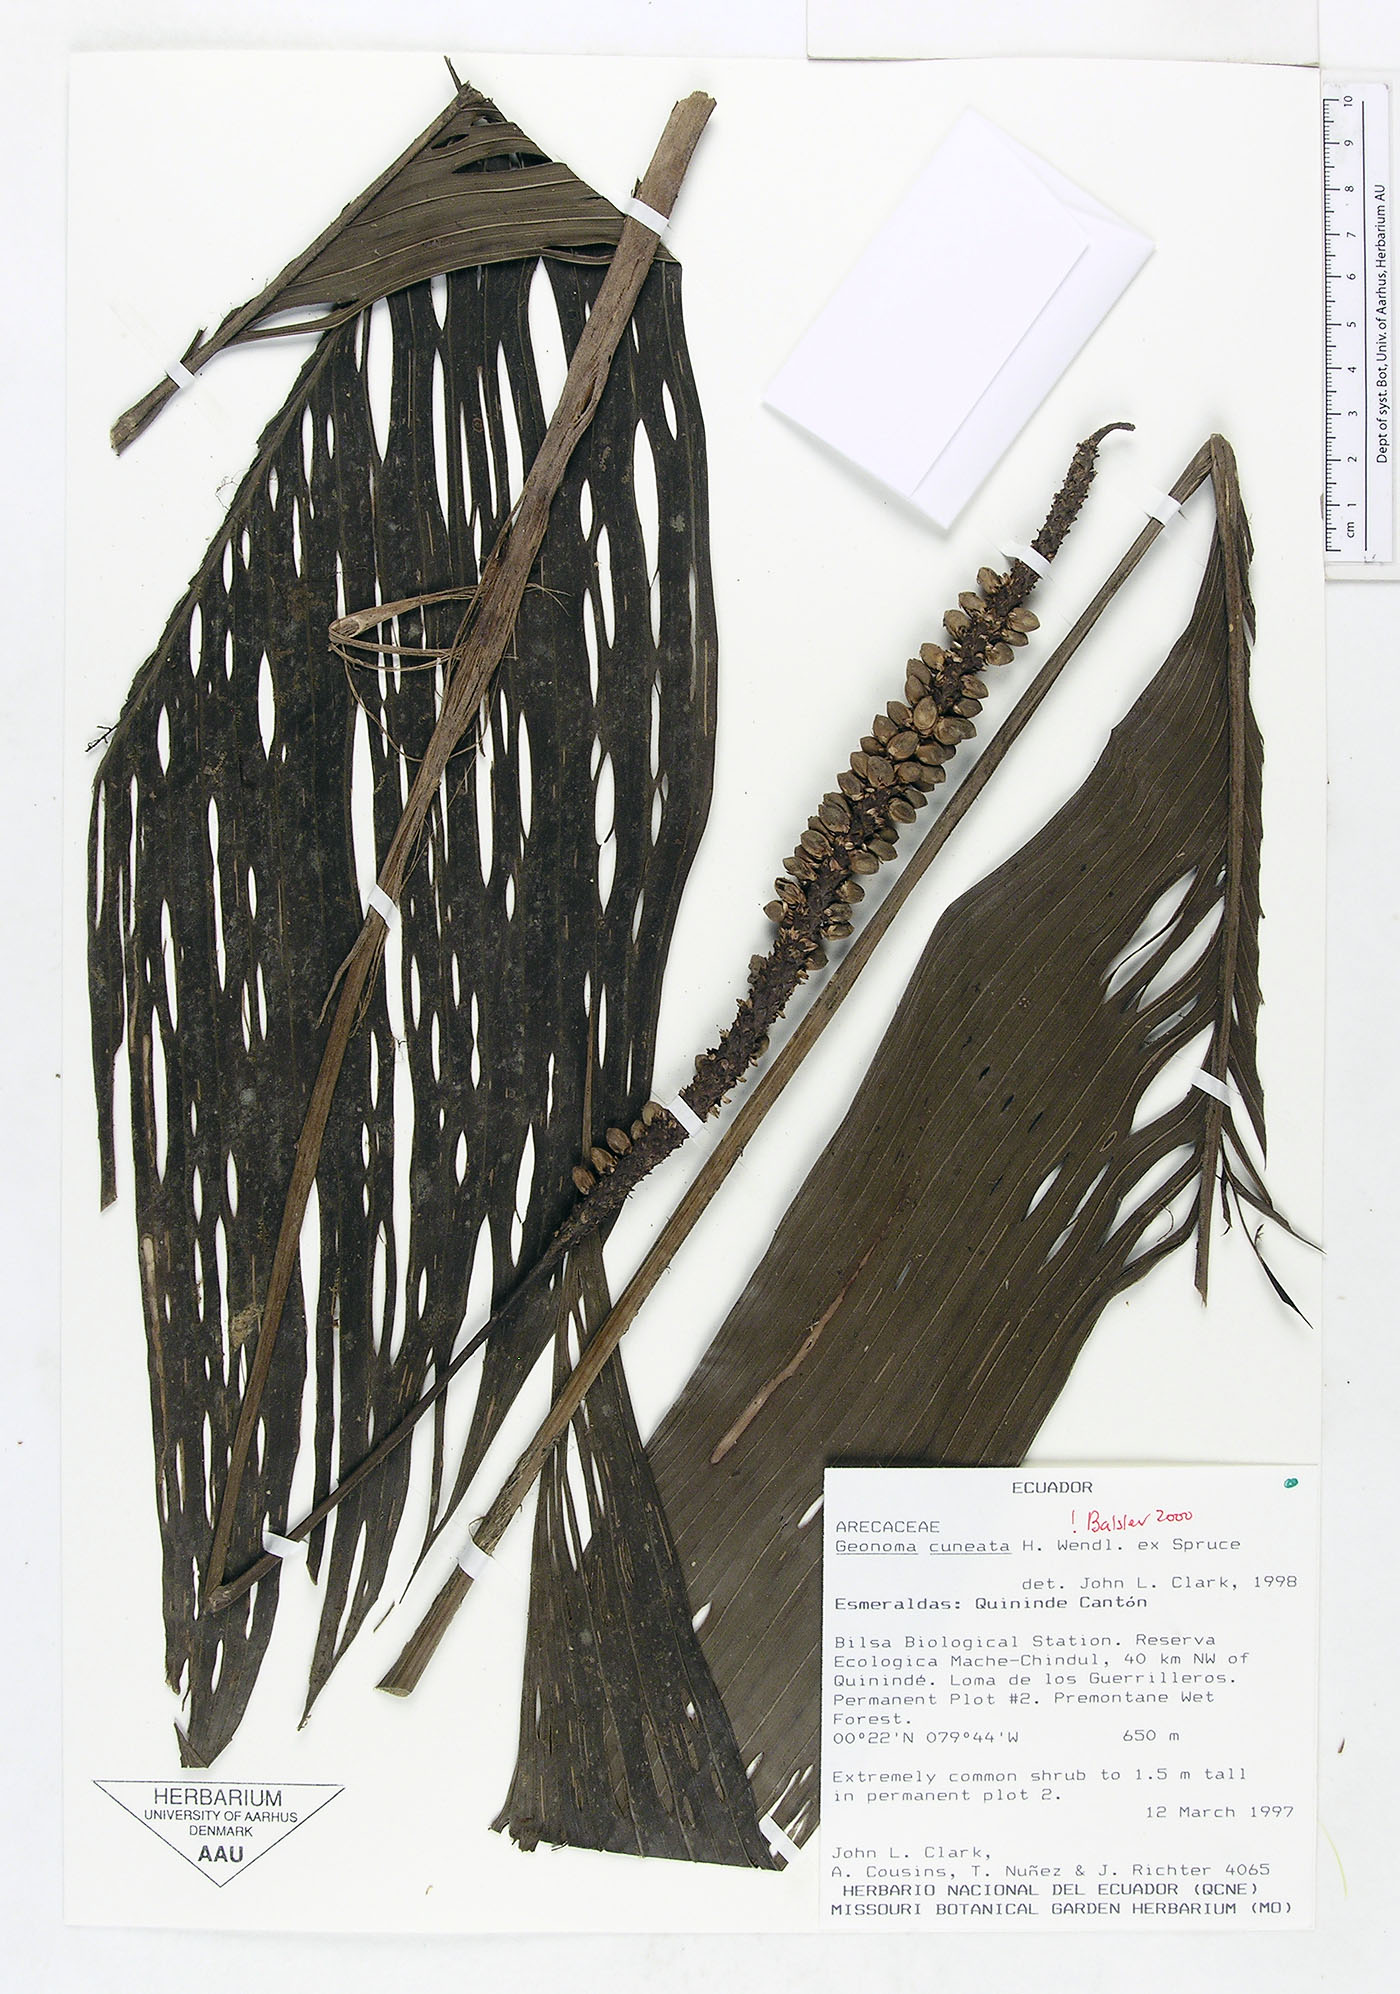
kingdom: Plantae
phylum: Tracheophyta
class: Liliopsida
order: Arecales
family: Arecaceae
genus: Geonoma
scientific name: Geonoma cuneata
